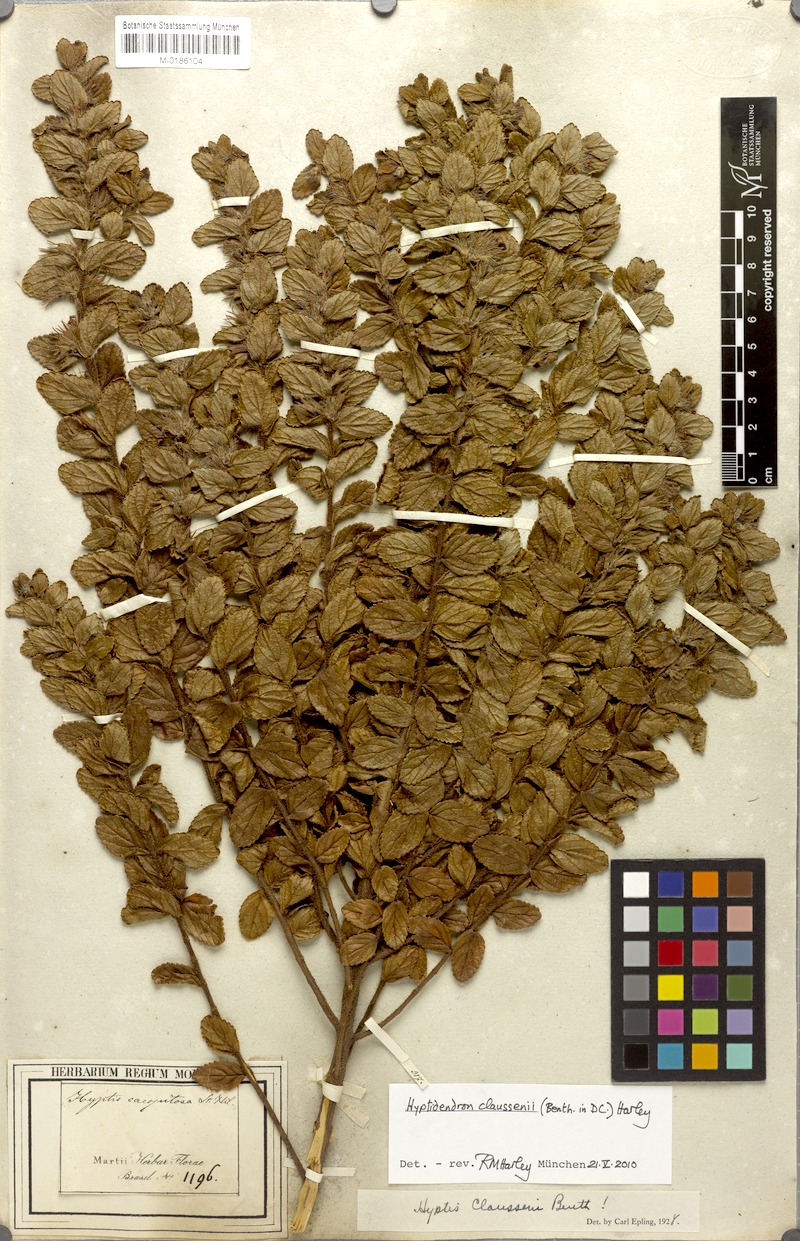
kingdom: Plantae
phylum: Tracheophyta
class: Magnoliopsida
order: Lamiales
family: Lamiaceae
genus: Hyptidendron
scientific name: Hyptidendron claussenii
